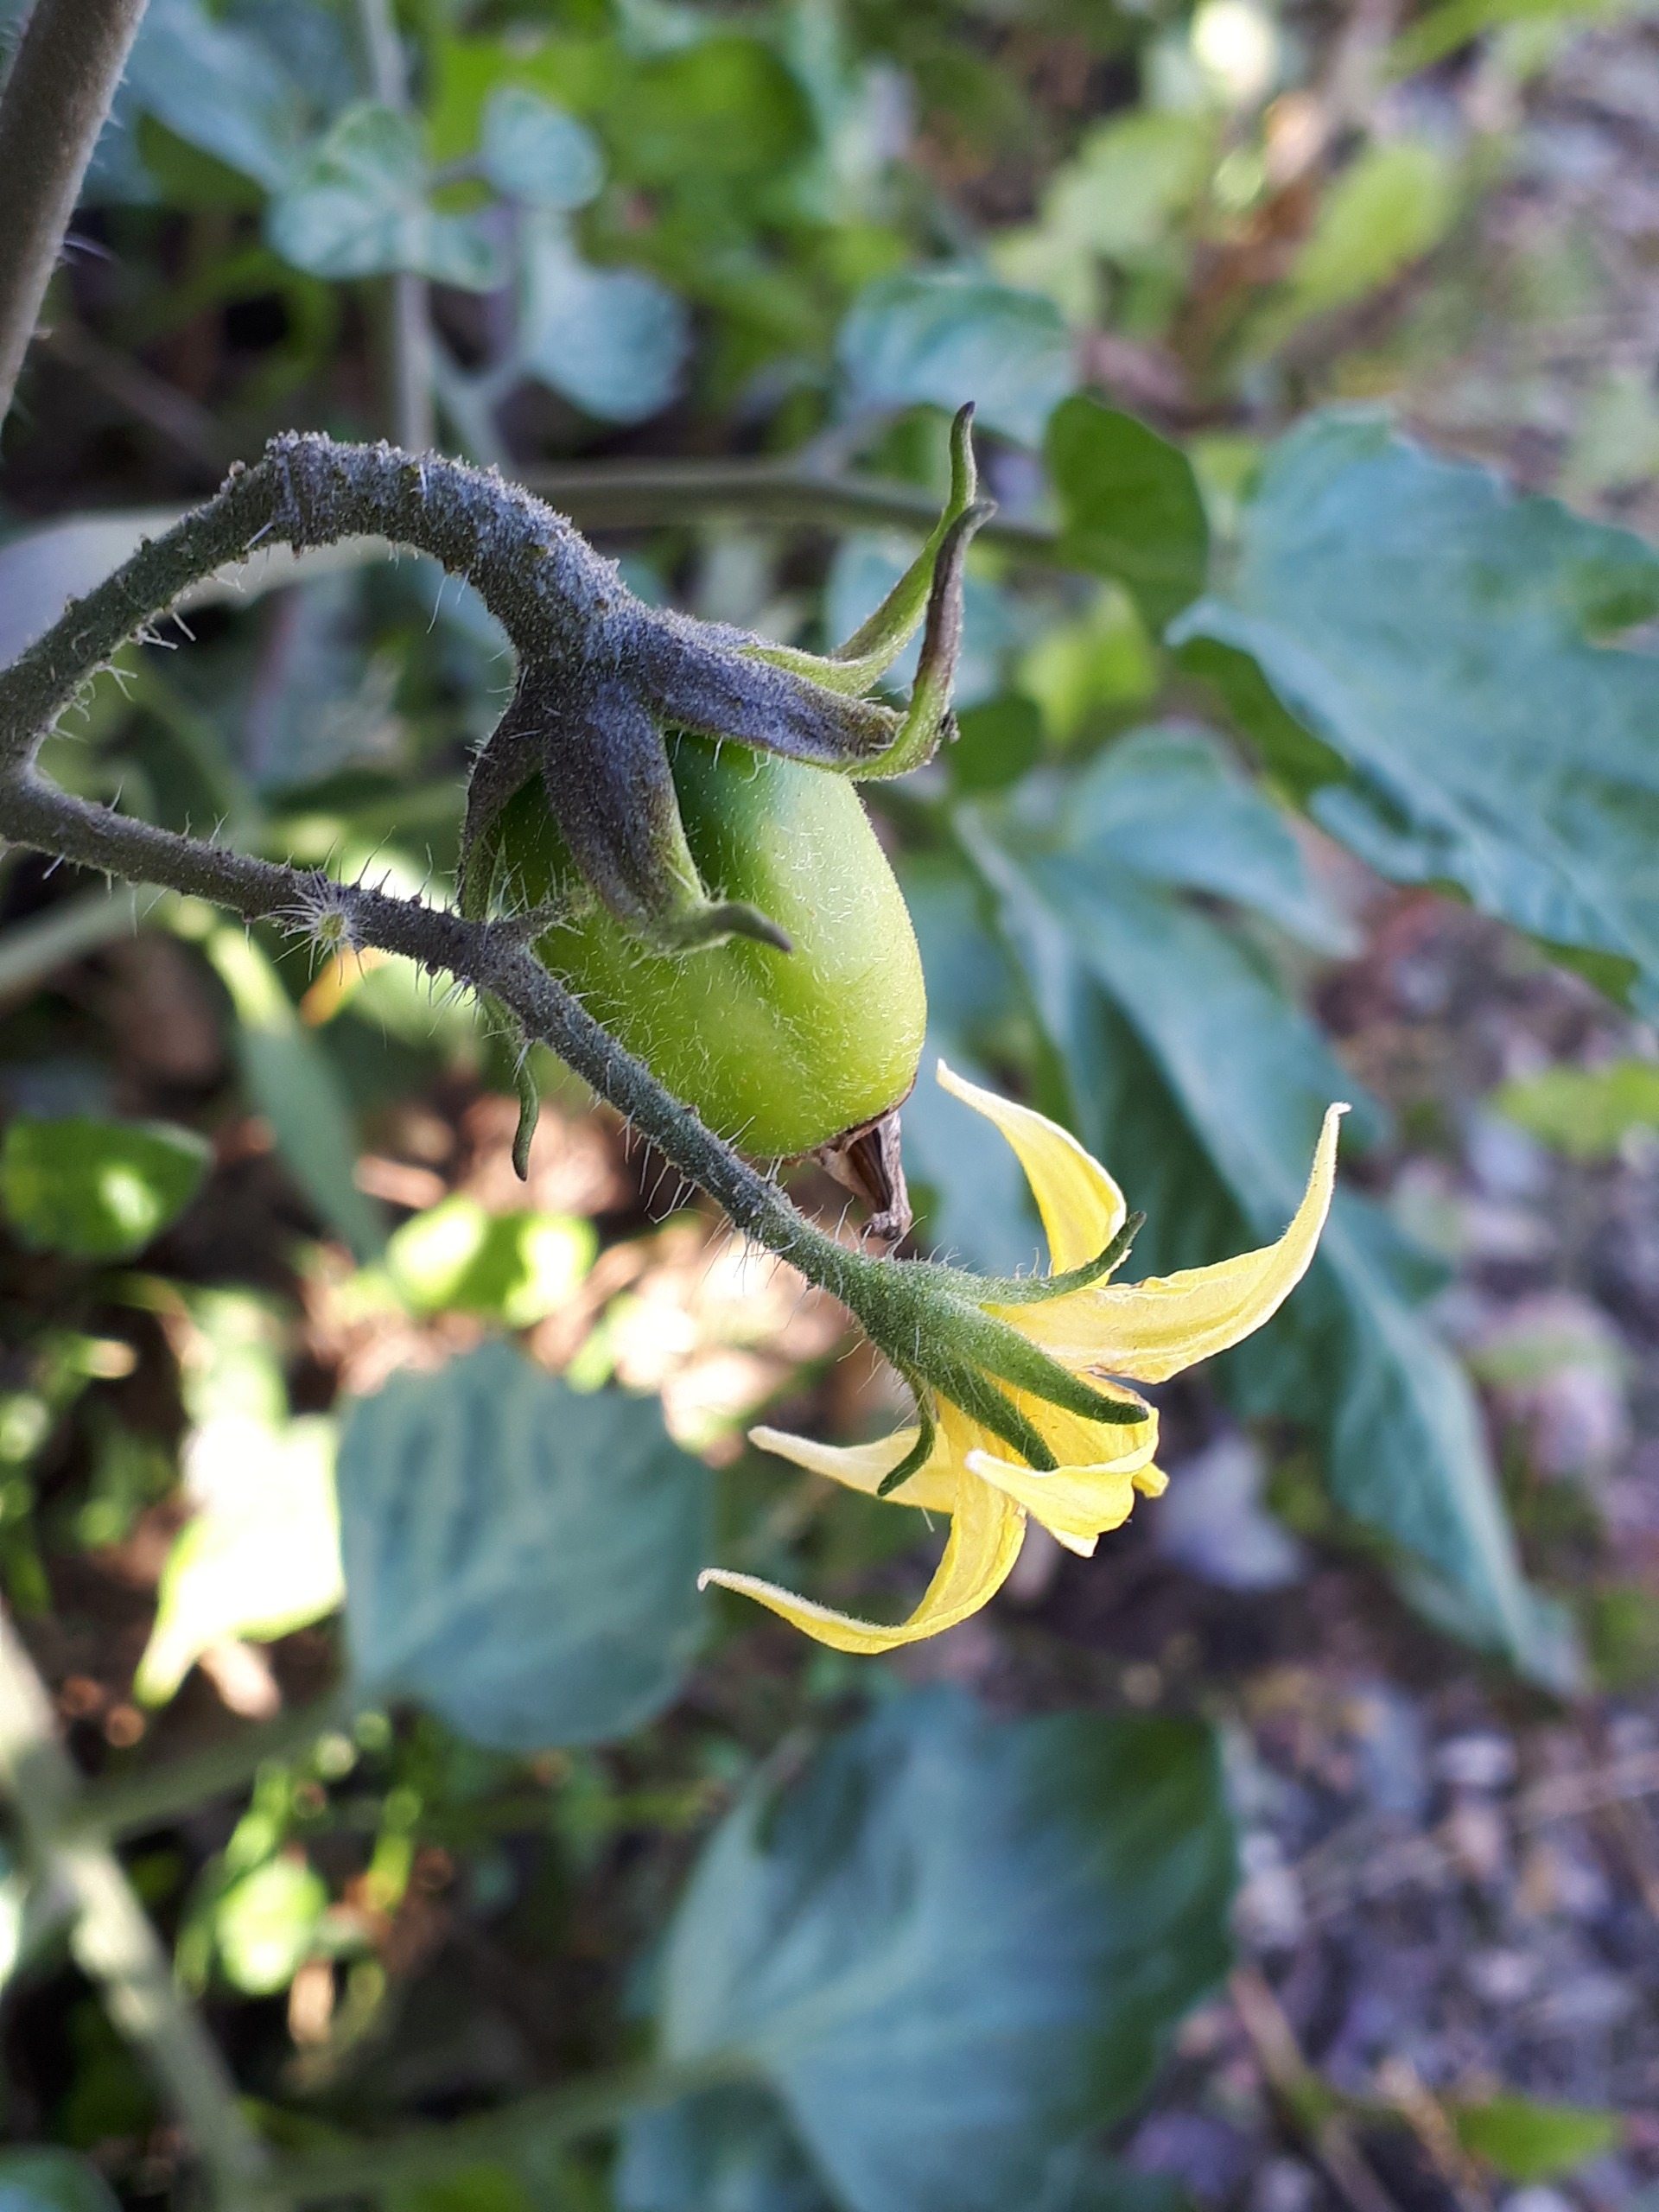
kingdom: Plantae
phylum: Tracheophyta
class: Magnoliopsida
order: Solanales
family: Solanaceae
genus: Solanum
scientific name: Solanum lycopersicum
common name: Tomat
